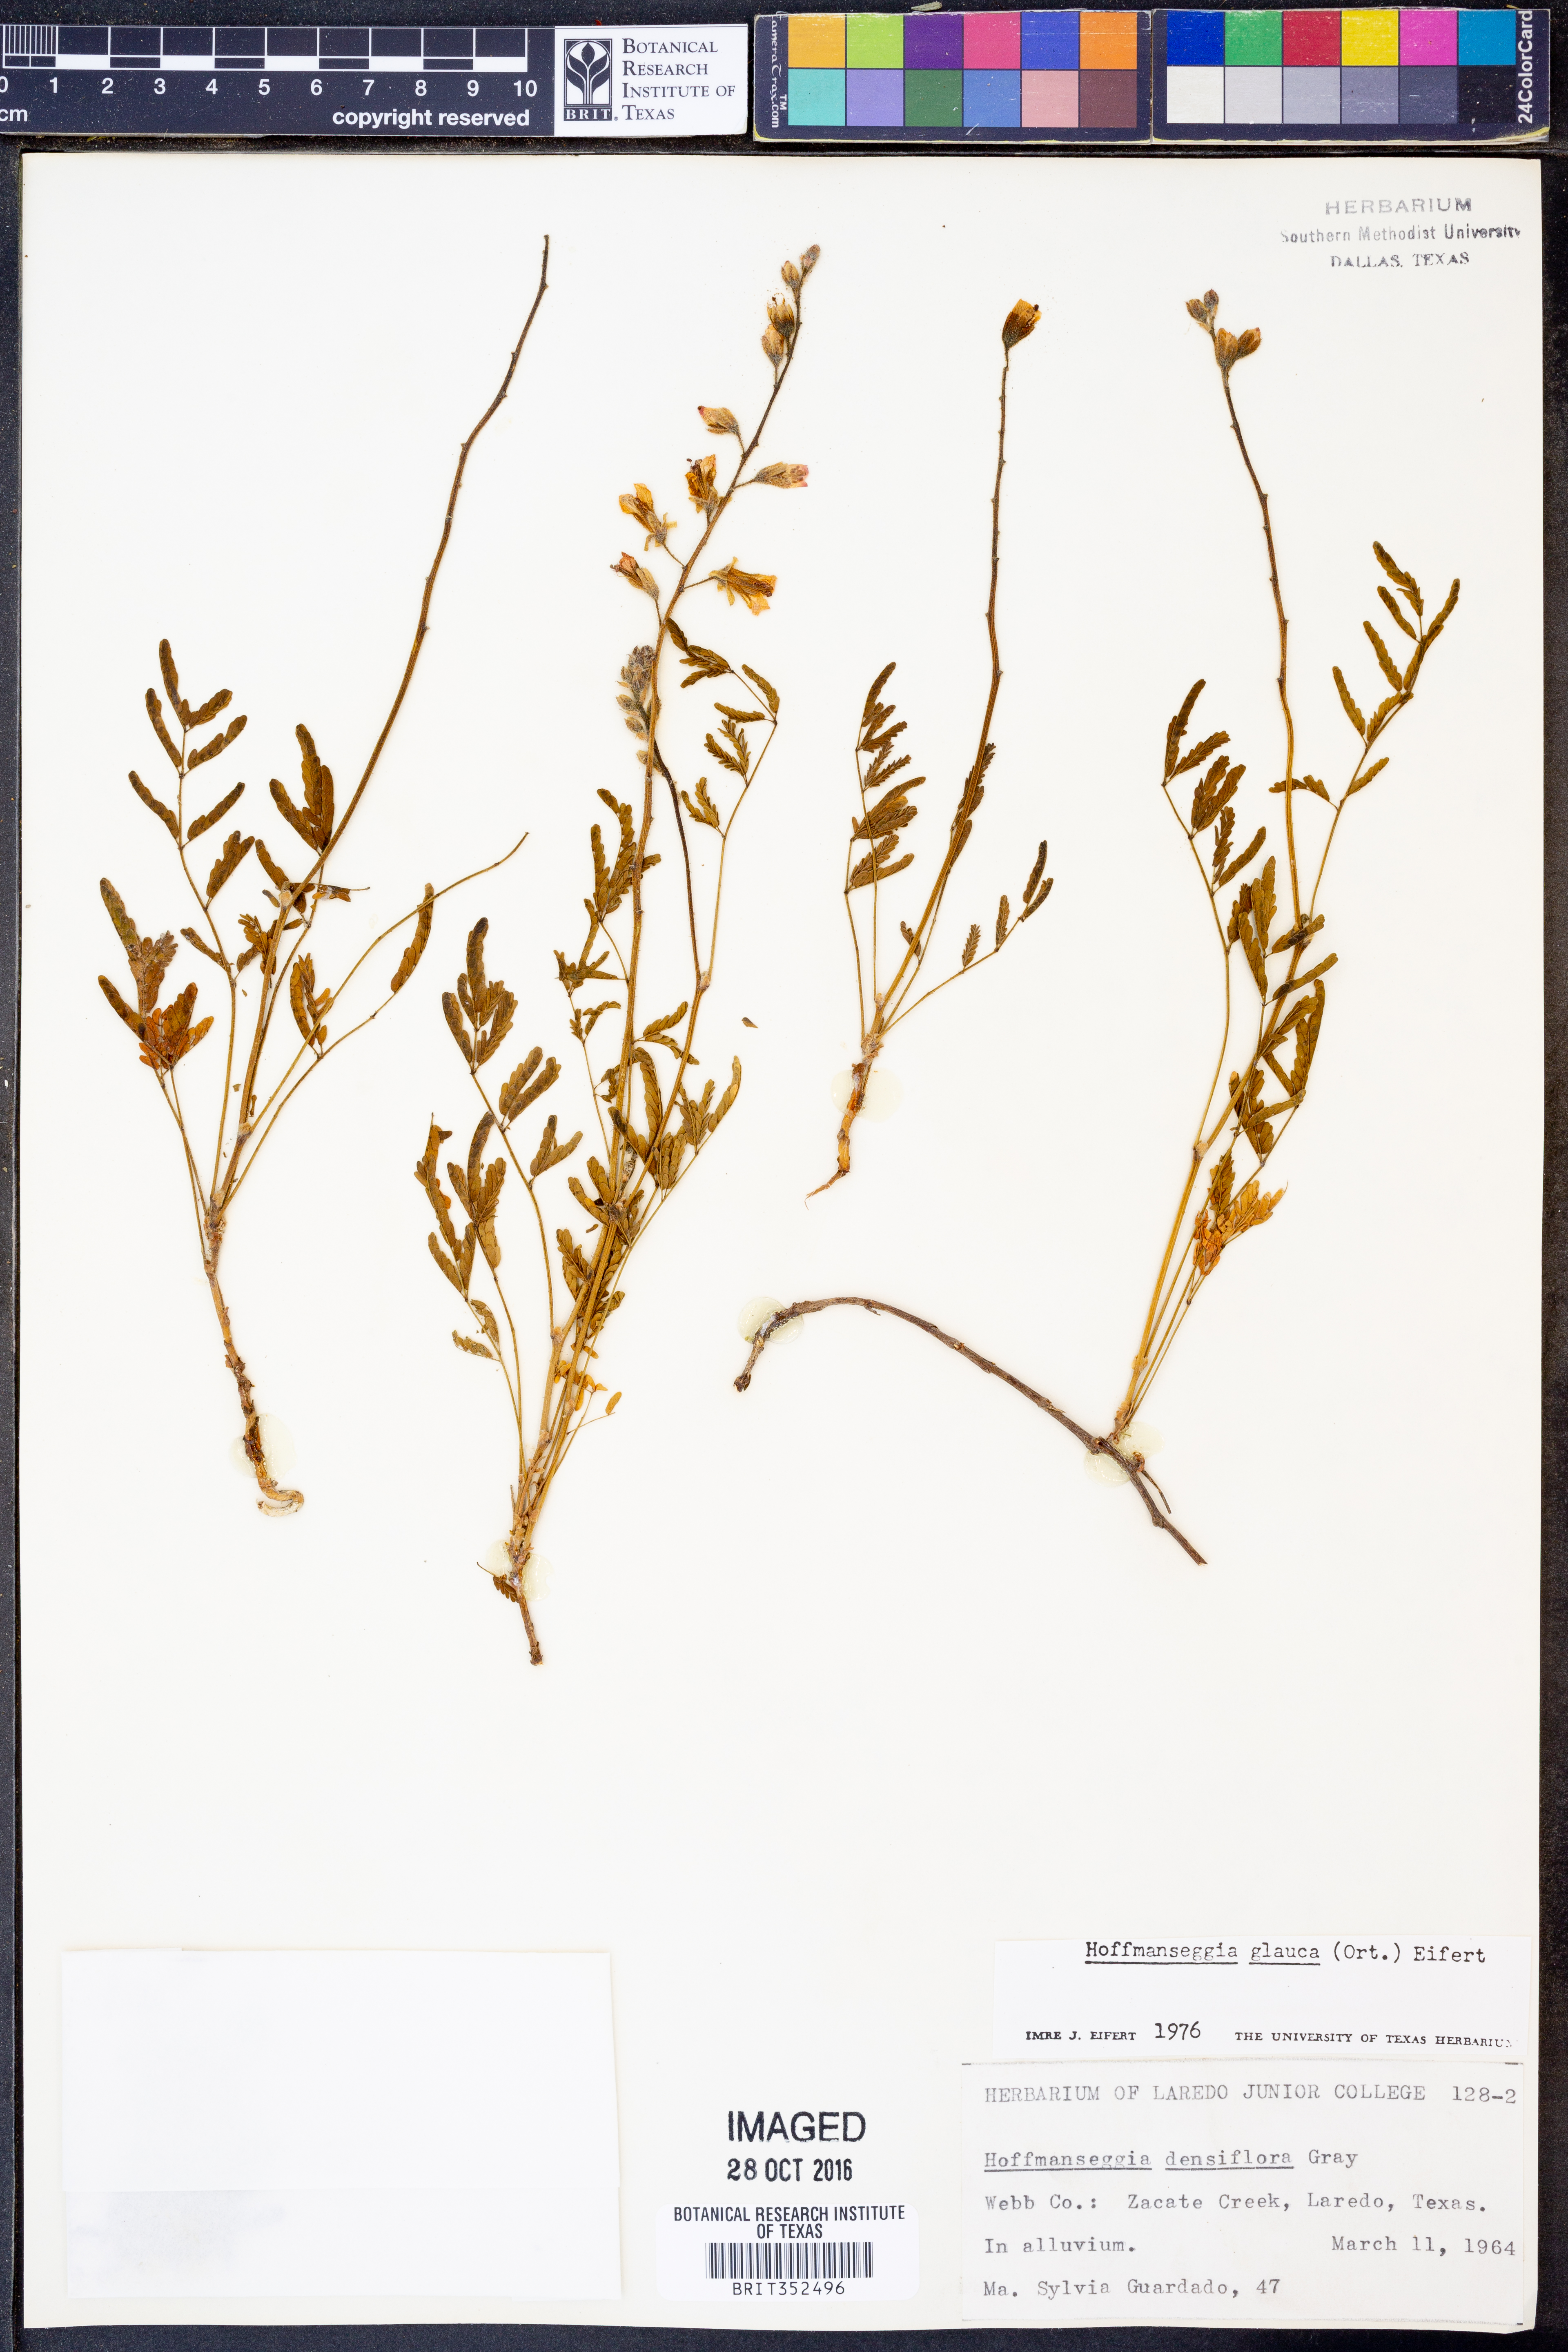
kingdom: Plantae
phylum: Tracheophyta
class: Magnoliopsida
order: Fabales
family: Fabaceae
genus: Hoffmannseggia
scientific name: Hoffmannseggia glauca
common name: Pignut
